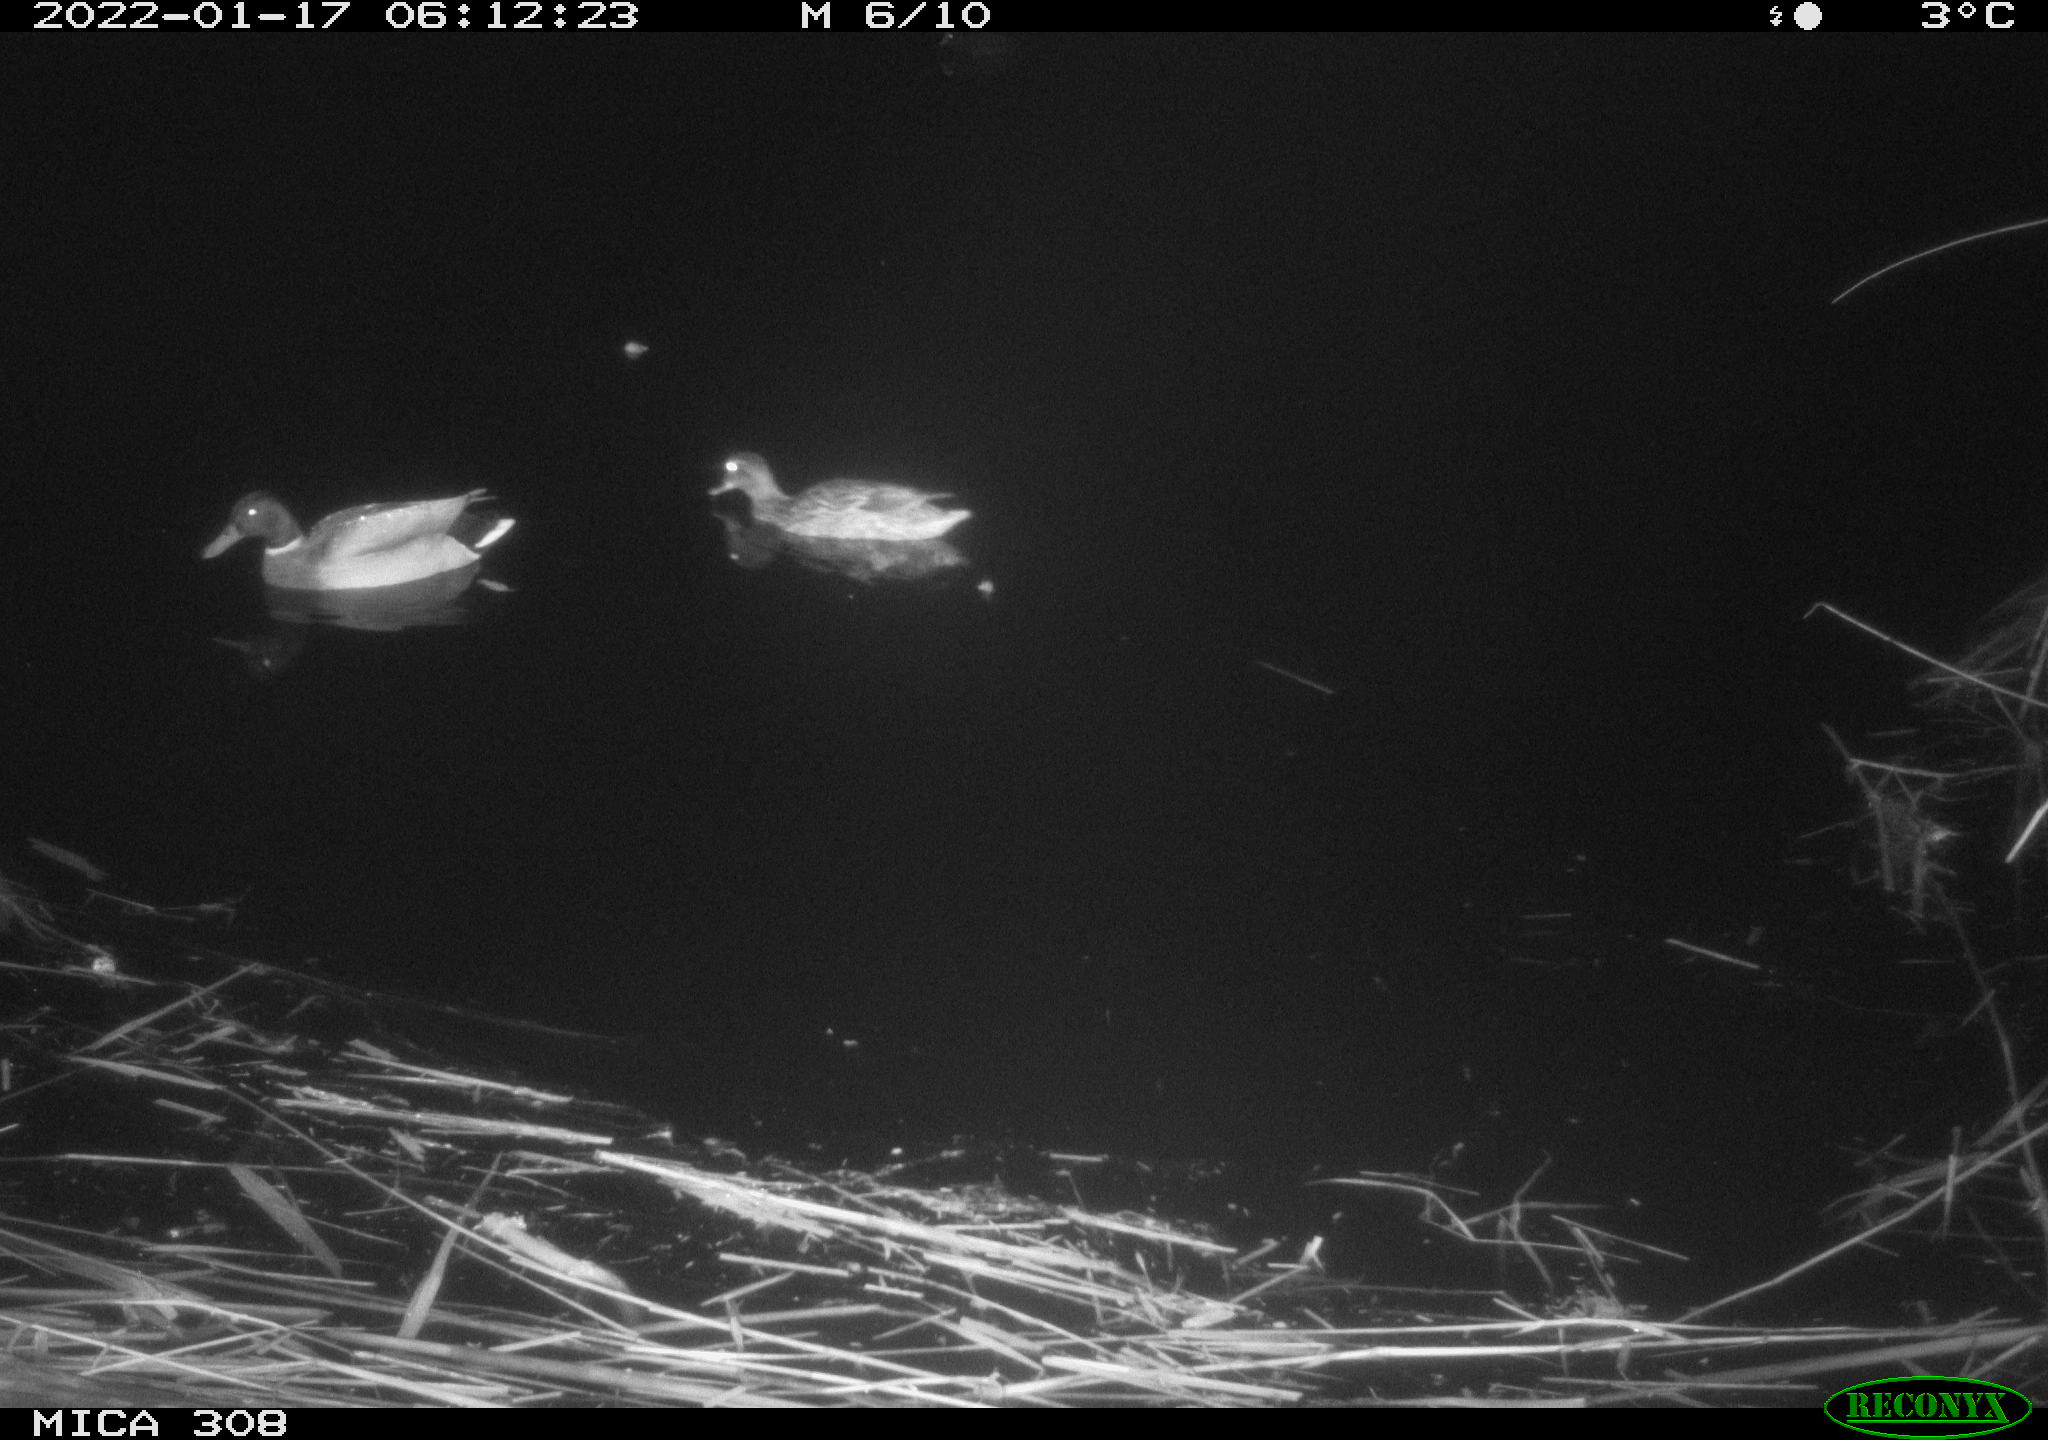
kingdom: Animalia
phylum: Chordata
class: Aves
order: Anseriformes
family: Anatidae
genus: Anas
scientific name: Anas
